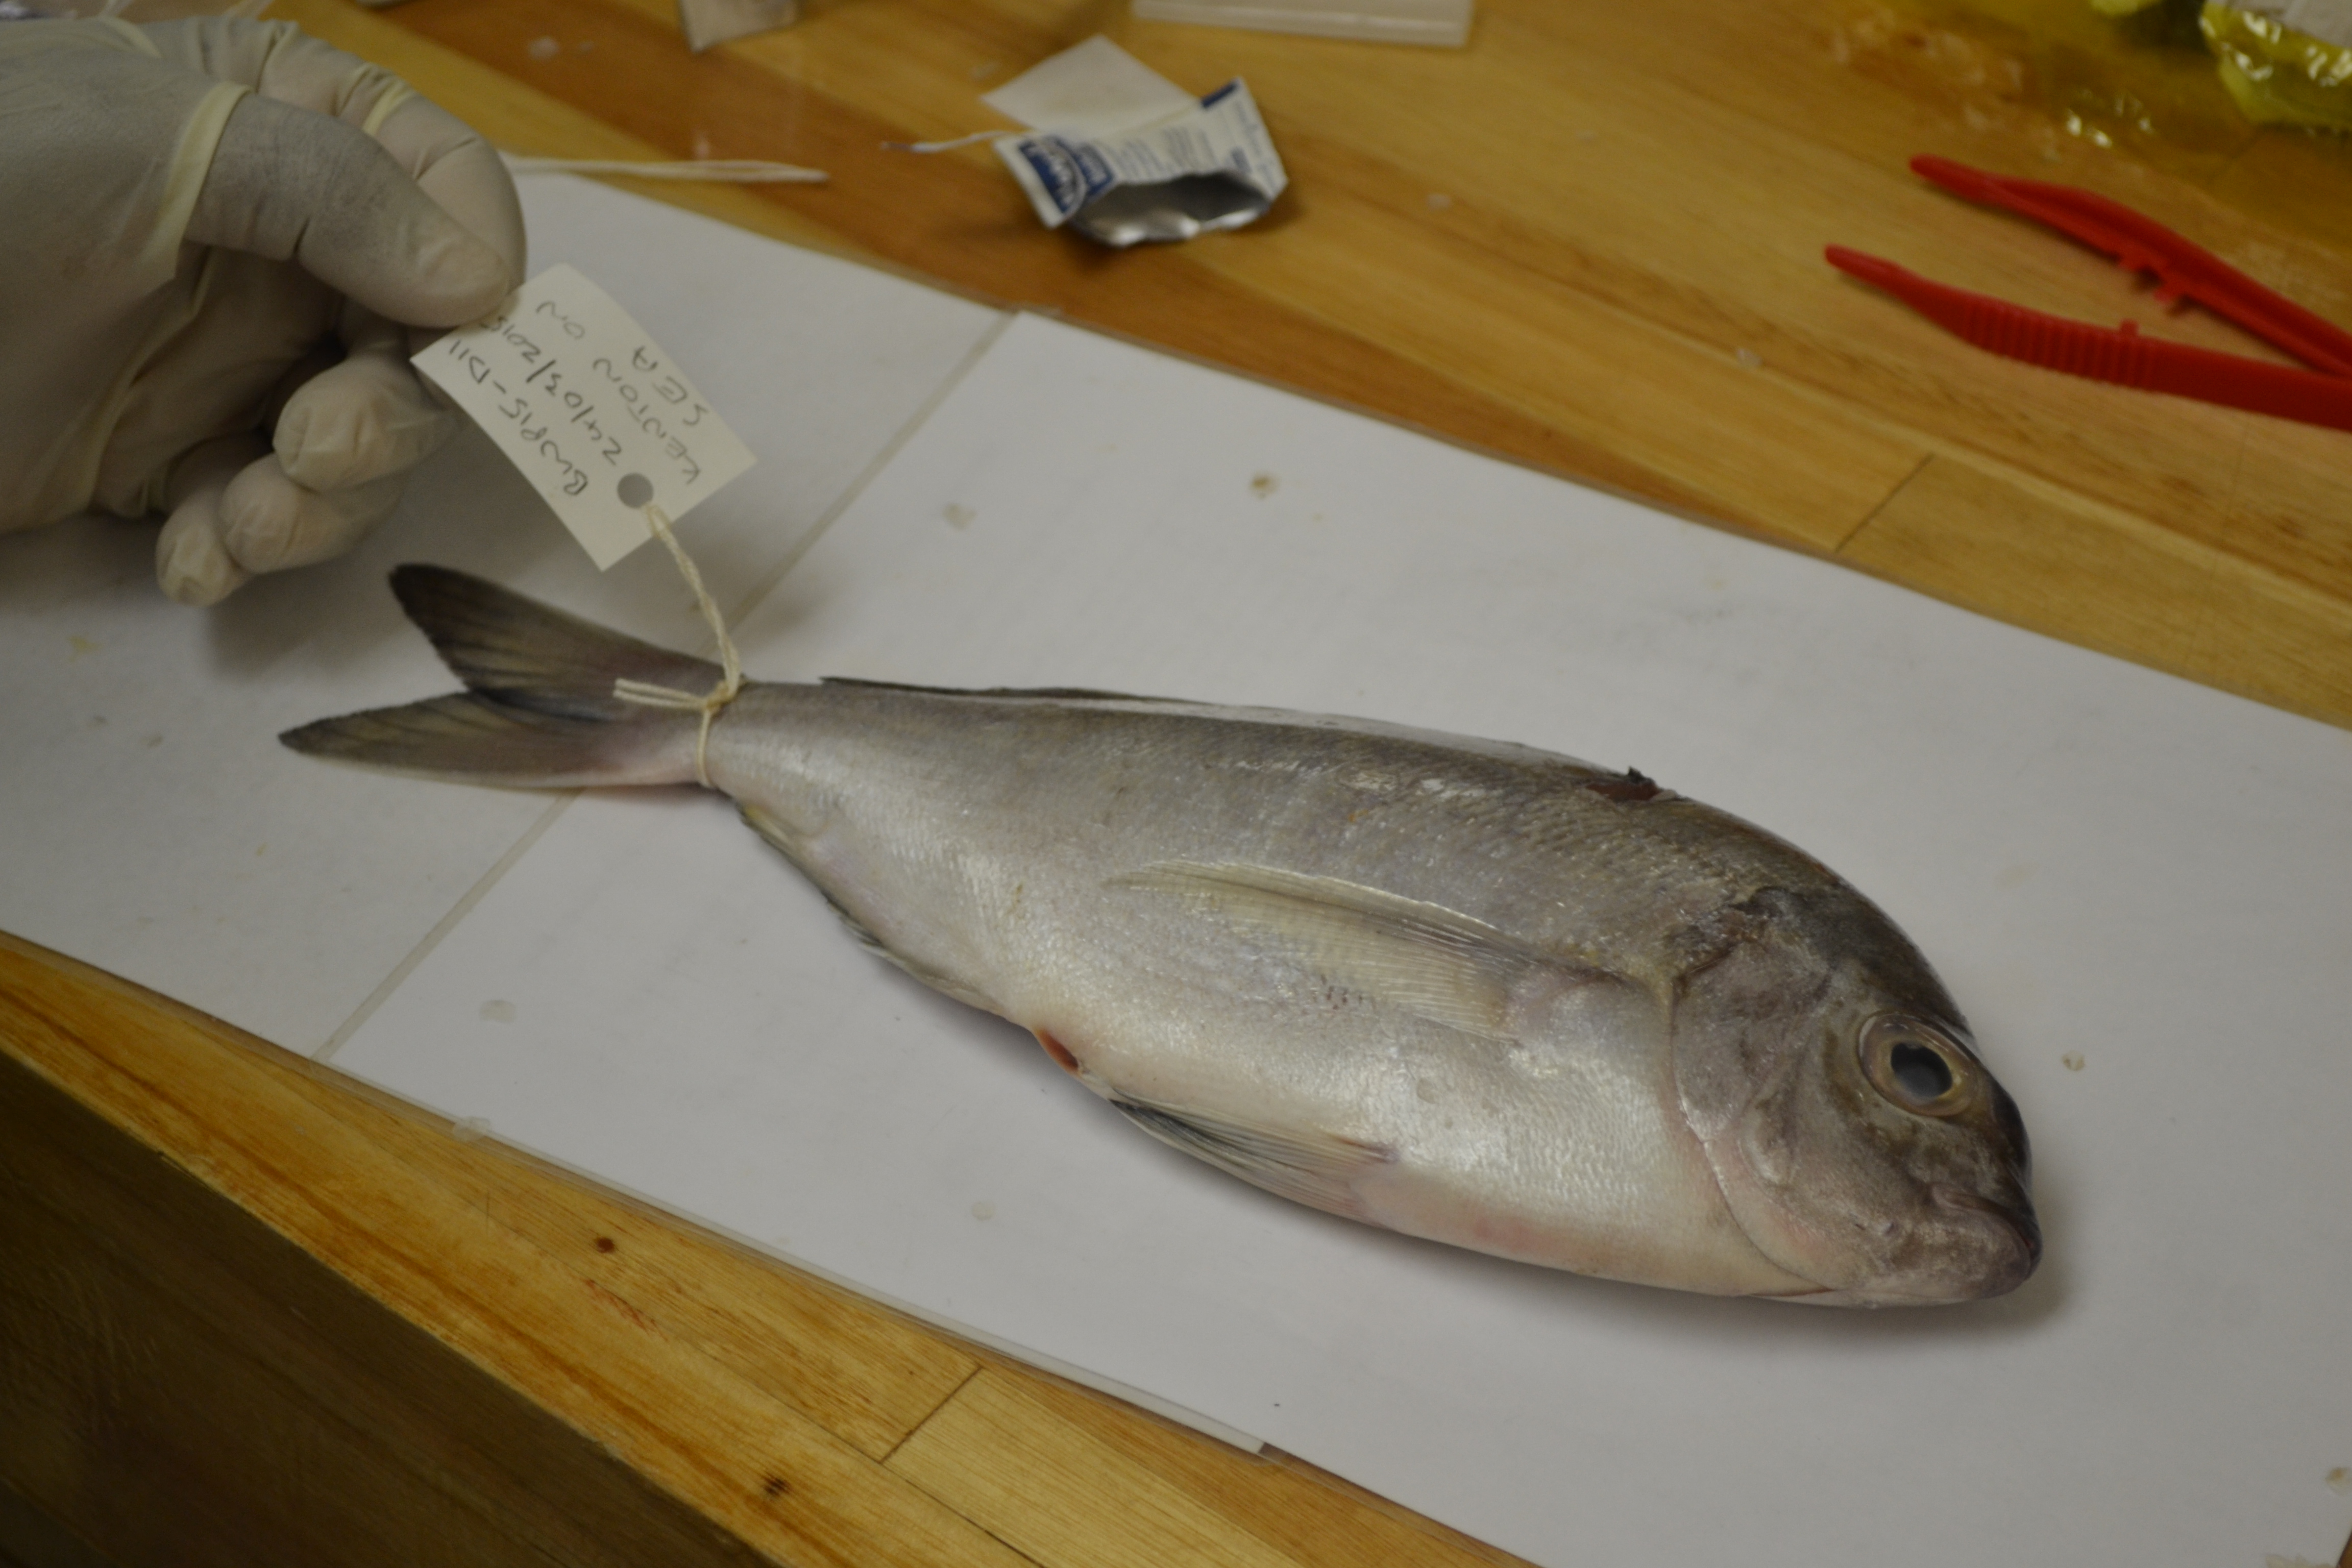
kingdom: Animalia
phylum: Chordata
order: Perciformes
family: Sparidae
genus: Pachymetopon
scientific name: Pachymetopon aeneum
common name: Blue hottentot
